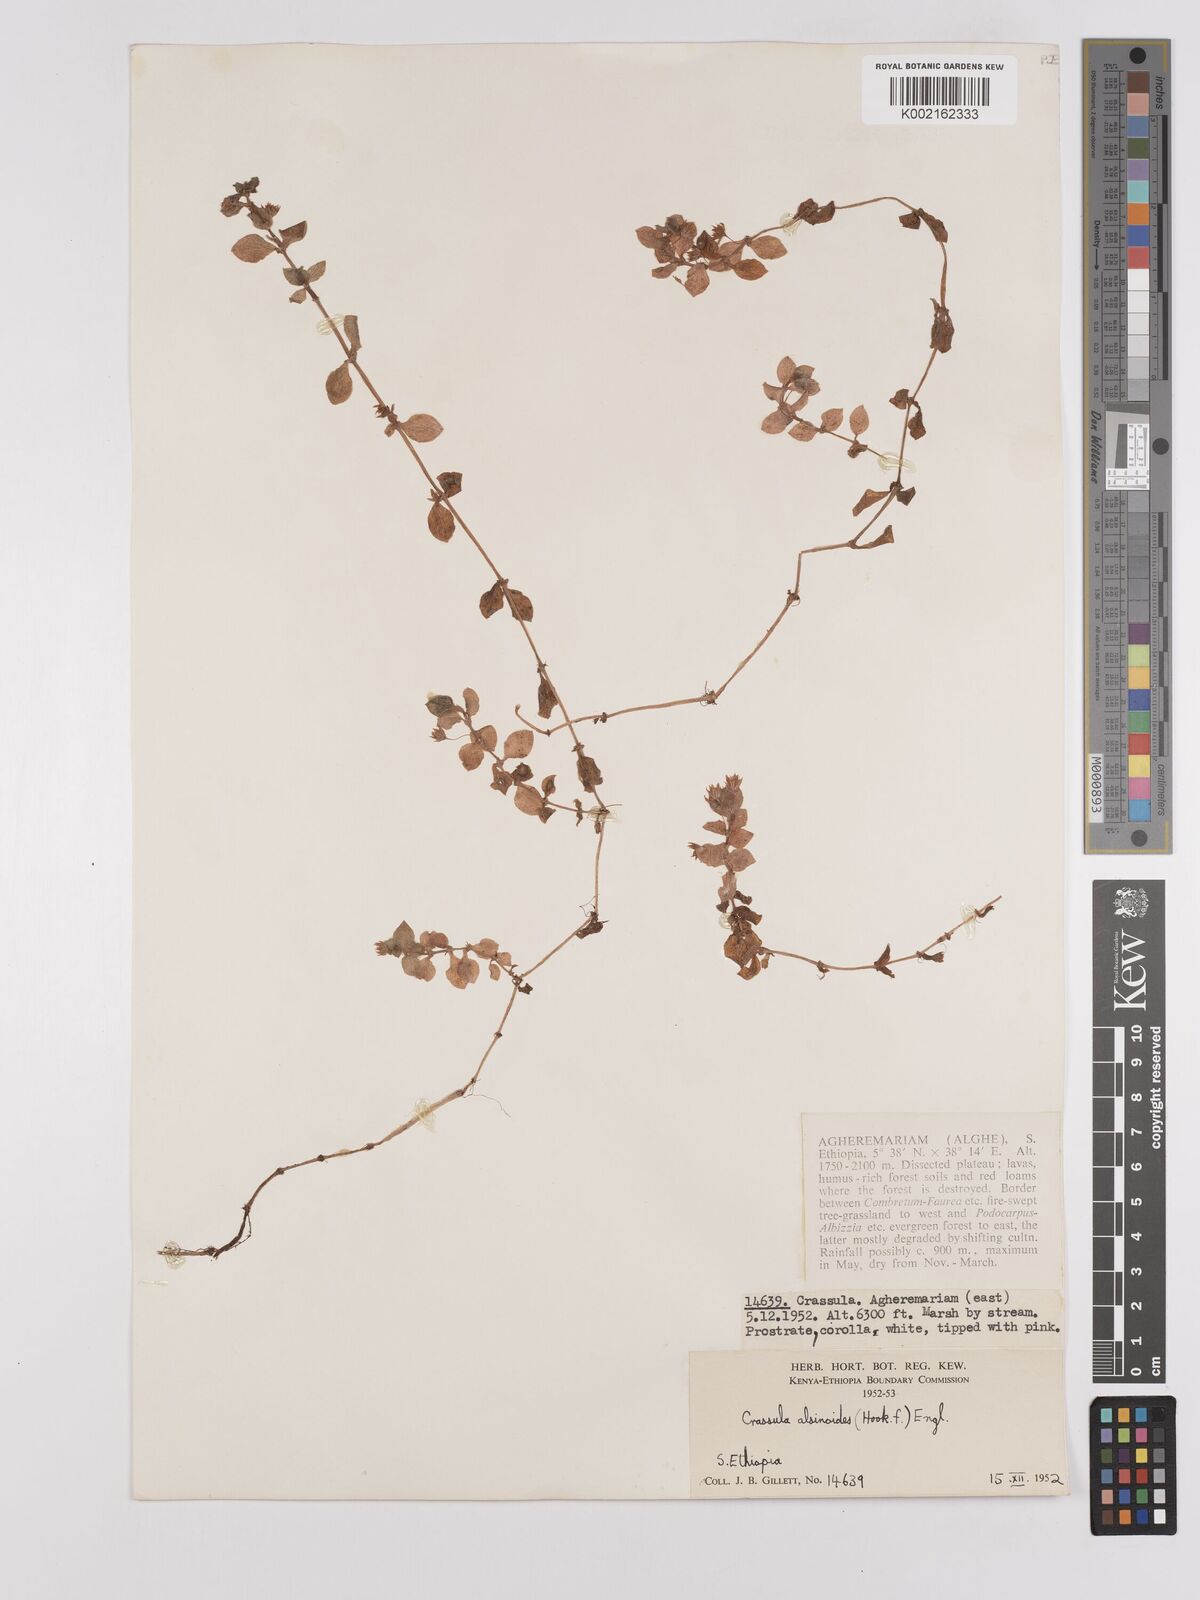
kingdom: Plantae
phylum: Tracheophyta
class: Magnoliopsida
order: Saxifragales
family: Crassulaceae
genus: Crassula
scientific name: Crassula alsinoides
